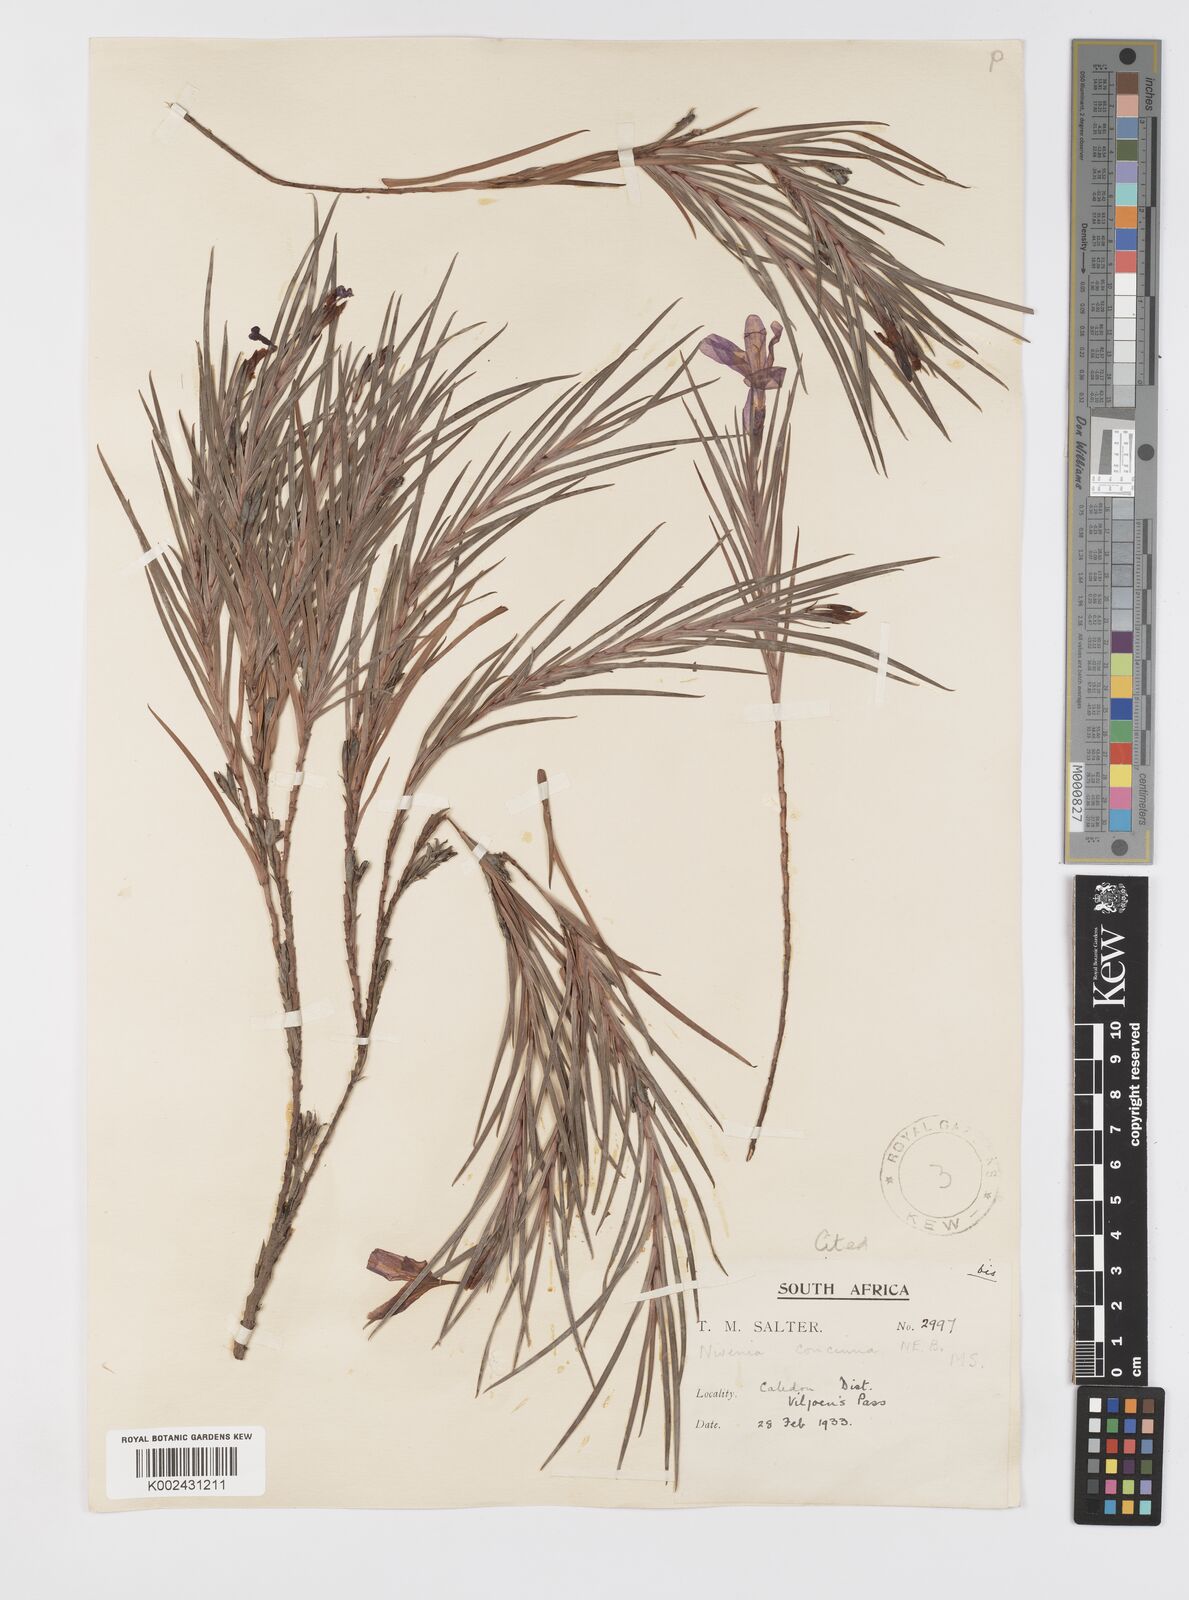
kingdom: Plantae
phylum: Tracheophyta
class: Liliopsida
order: Asparagales
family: Iridaceae
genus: Nivenia
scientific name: Nivenia concinna
